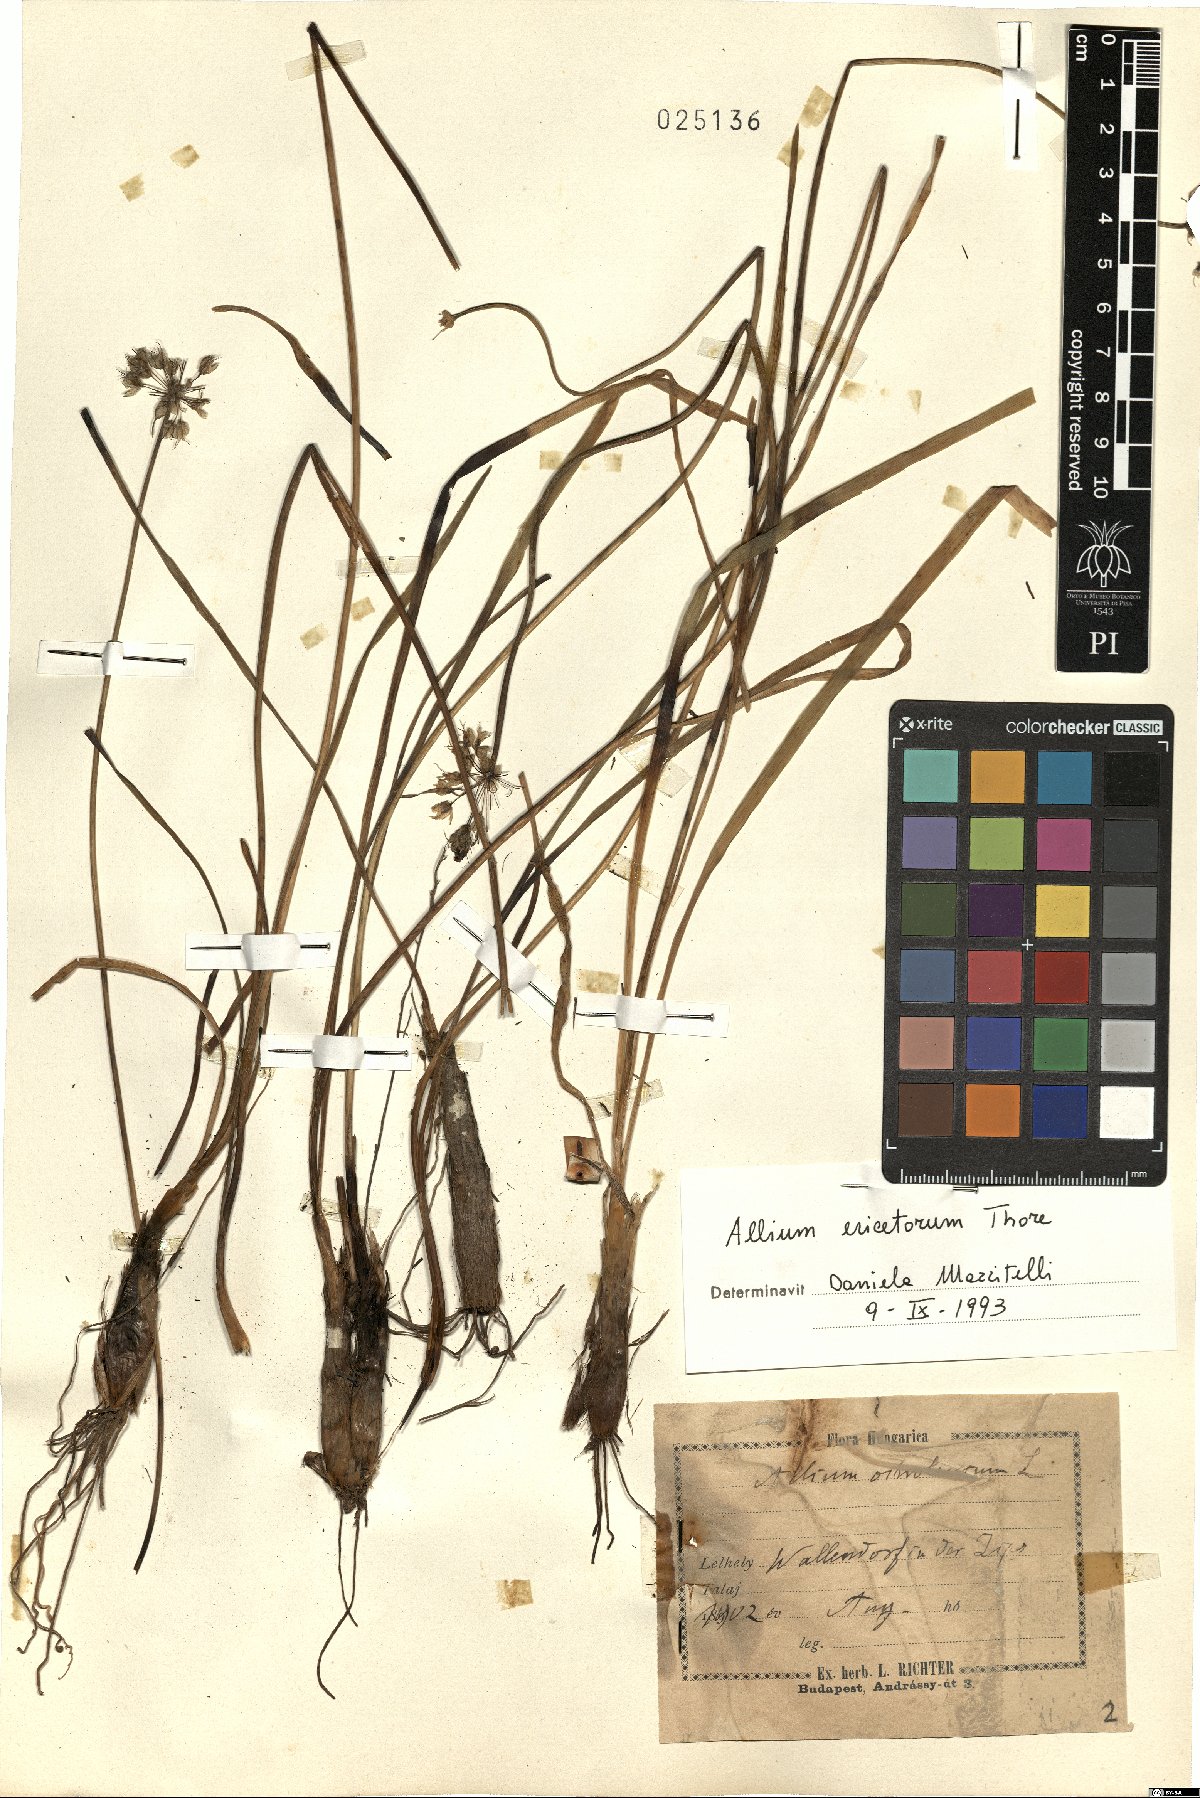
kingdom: Plantae
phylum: Tracheophyta
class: Liliopsida
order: Asparagales
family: Amaryllidaceae
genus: Allium
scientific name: Allium ericetorum
